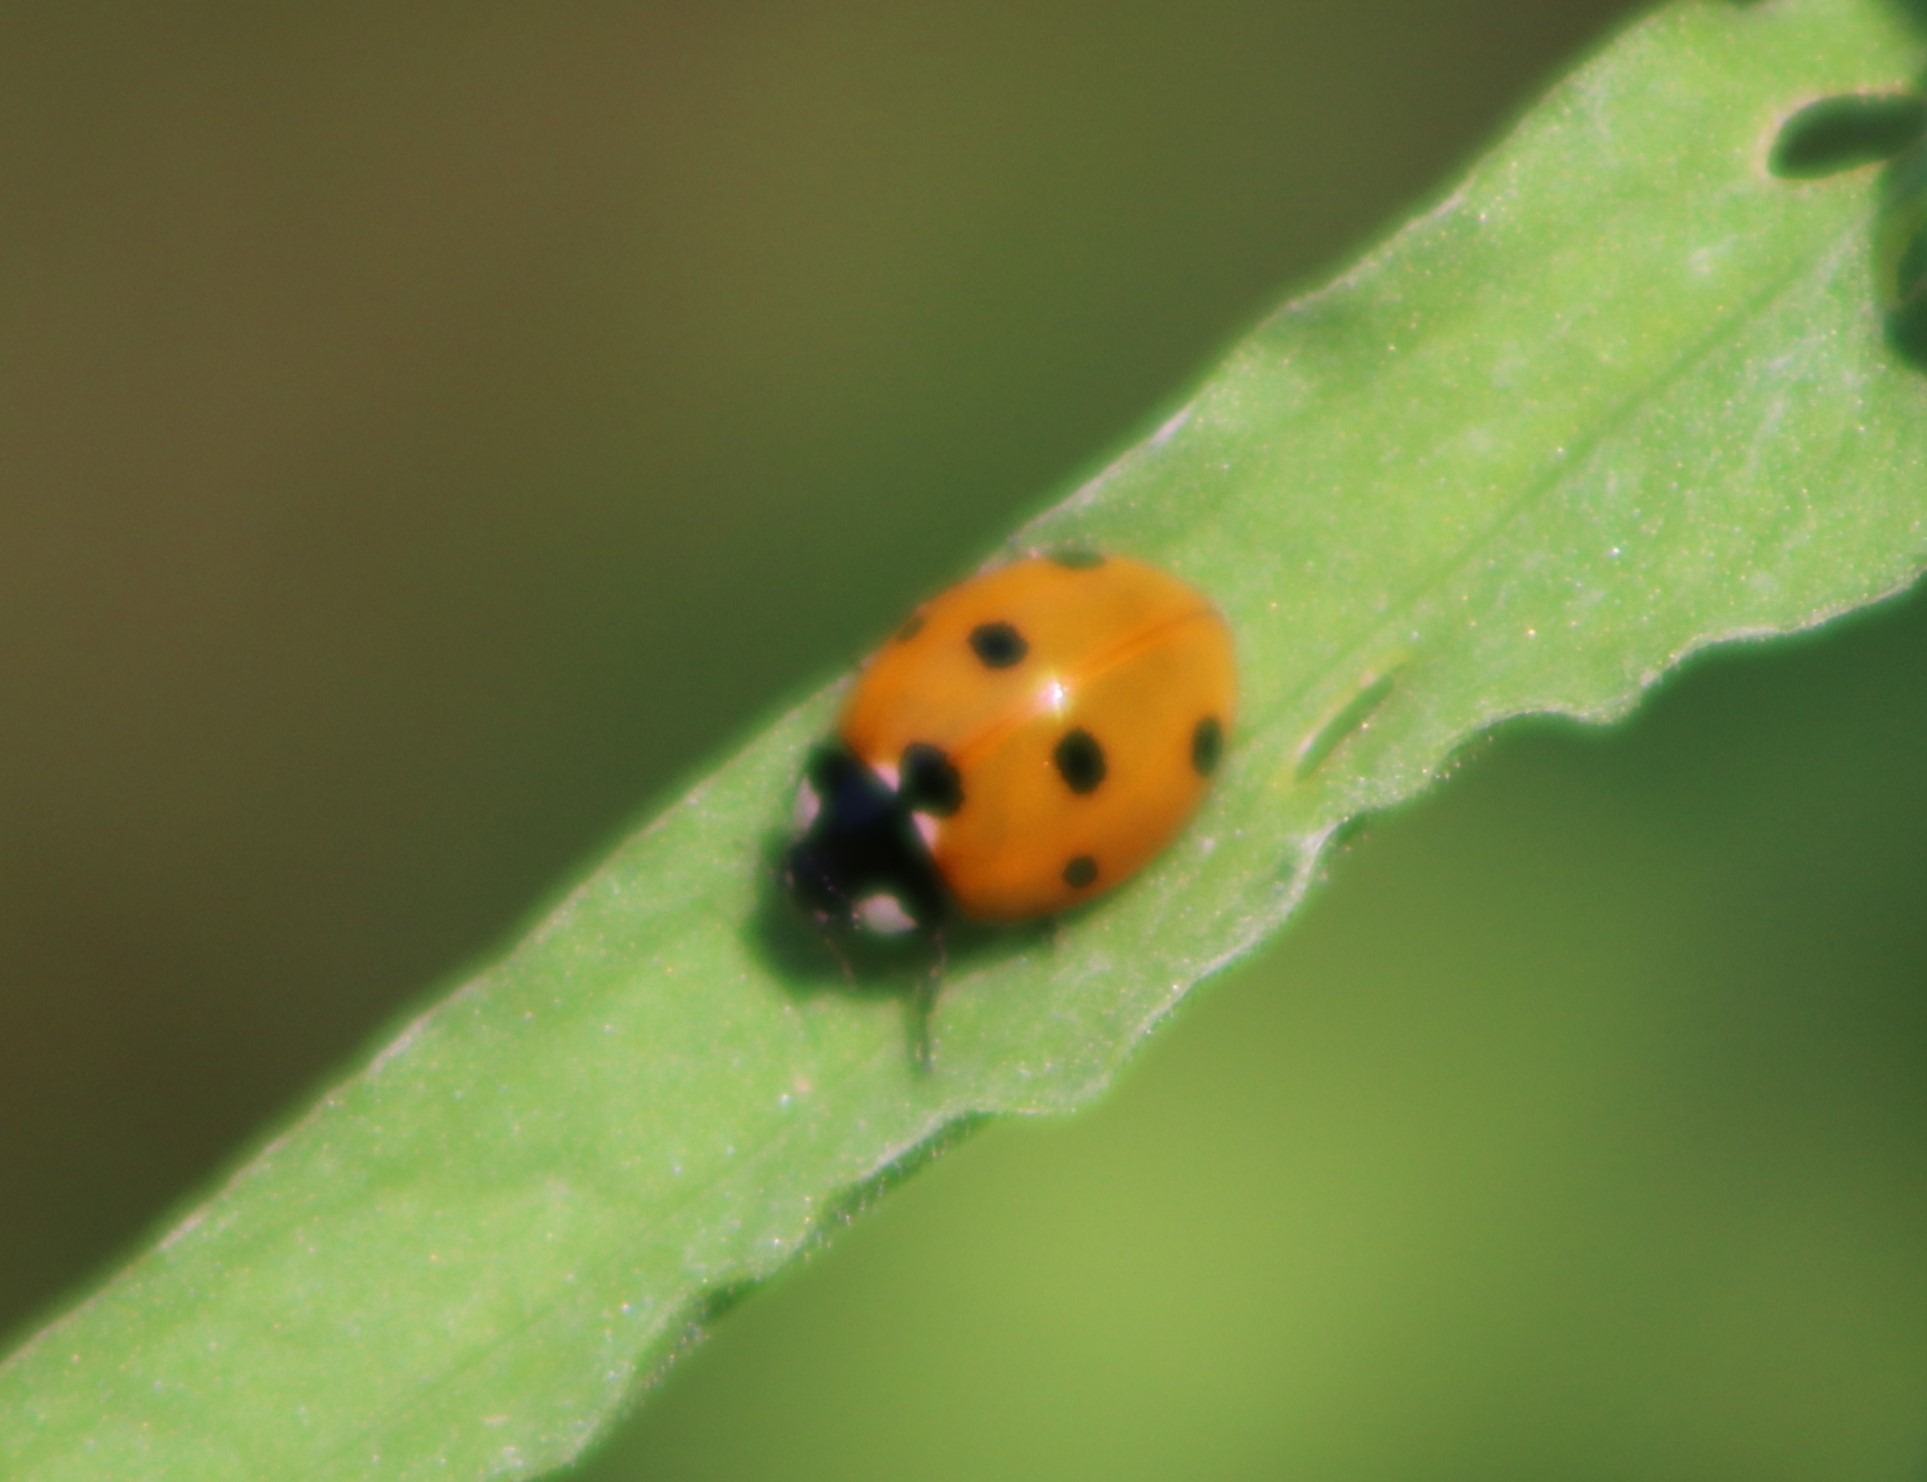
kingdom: Animalia
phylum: Arthropoda
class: Insecta
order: Coleoptera
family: Coccinellidae
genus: Coccinella
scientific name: Coccinella septempunctata
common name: Syvplettet mariehøne
